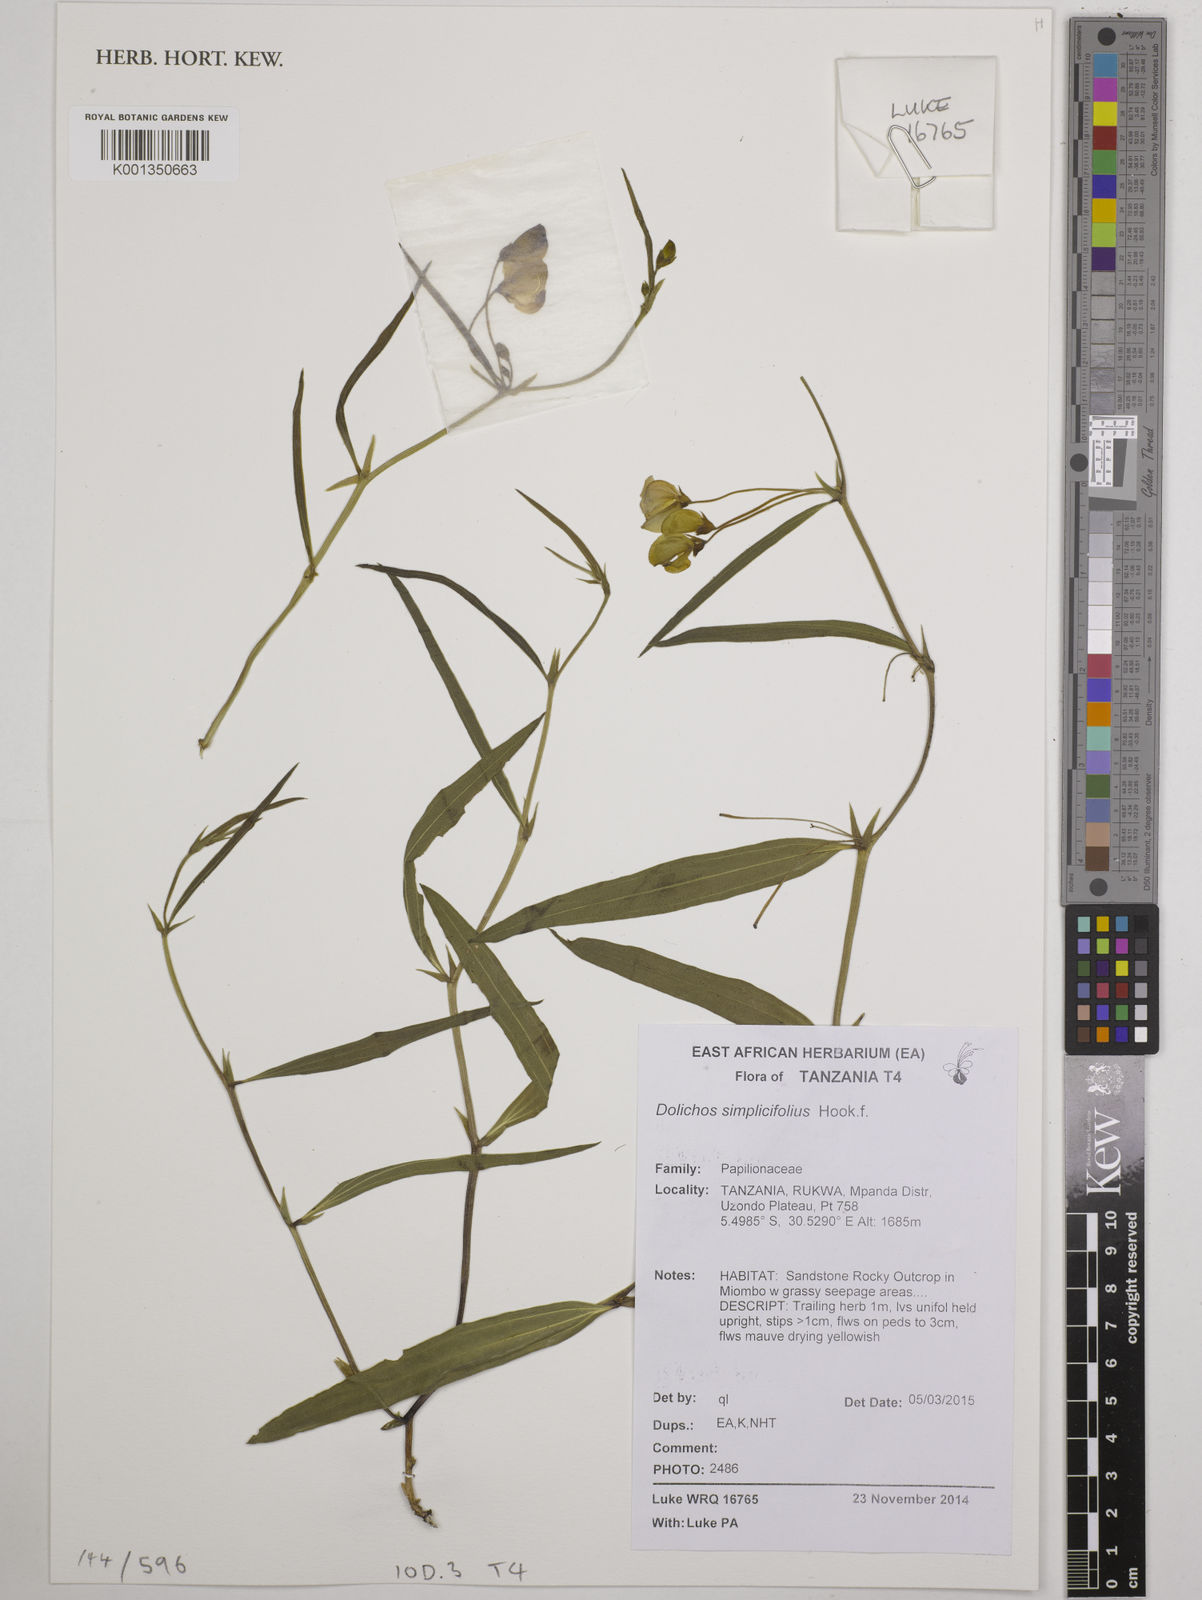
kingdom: Plantae
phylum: Tracheophyta
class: Magnoliopsida
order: Fabales
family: Fabaceae
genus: Dolichos
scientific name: Dolichos simplicifolius
